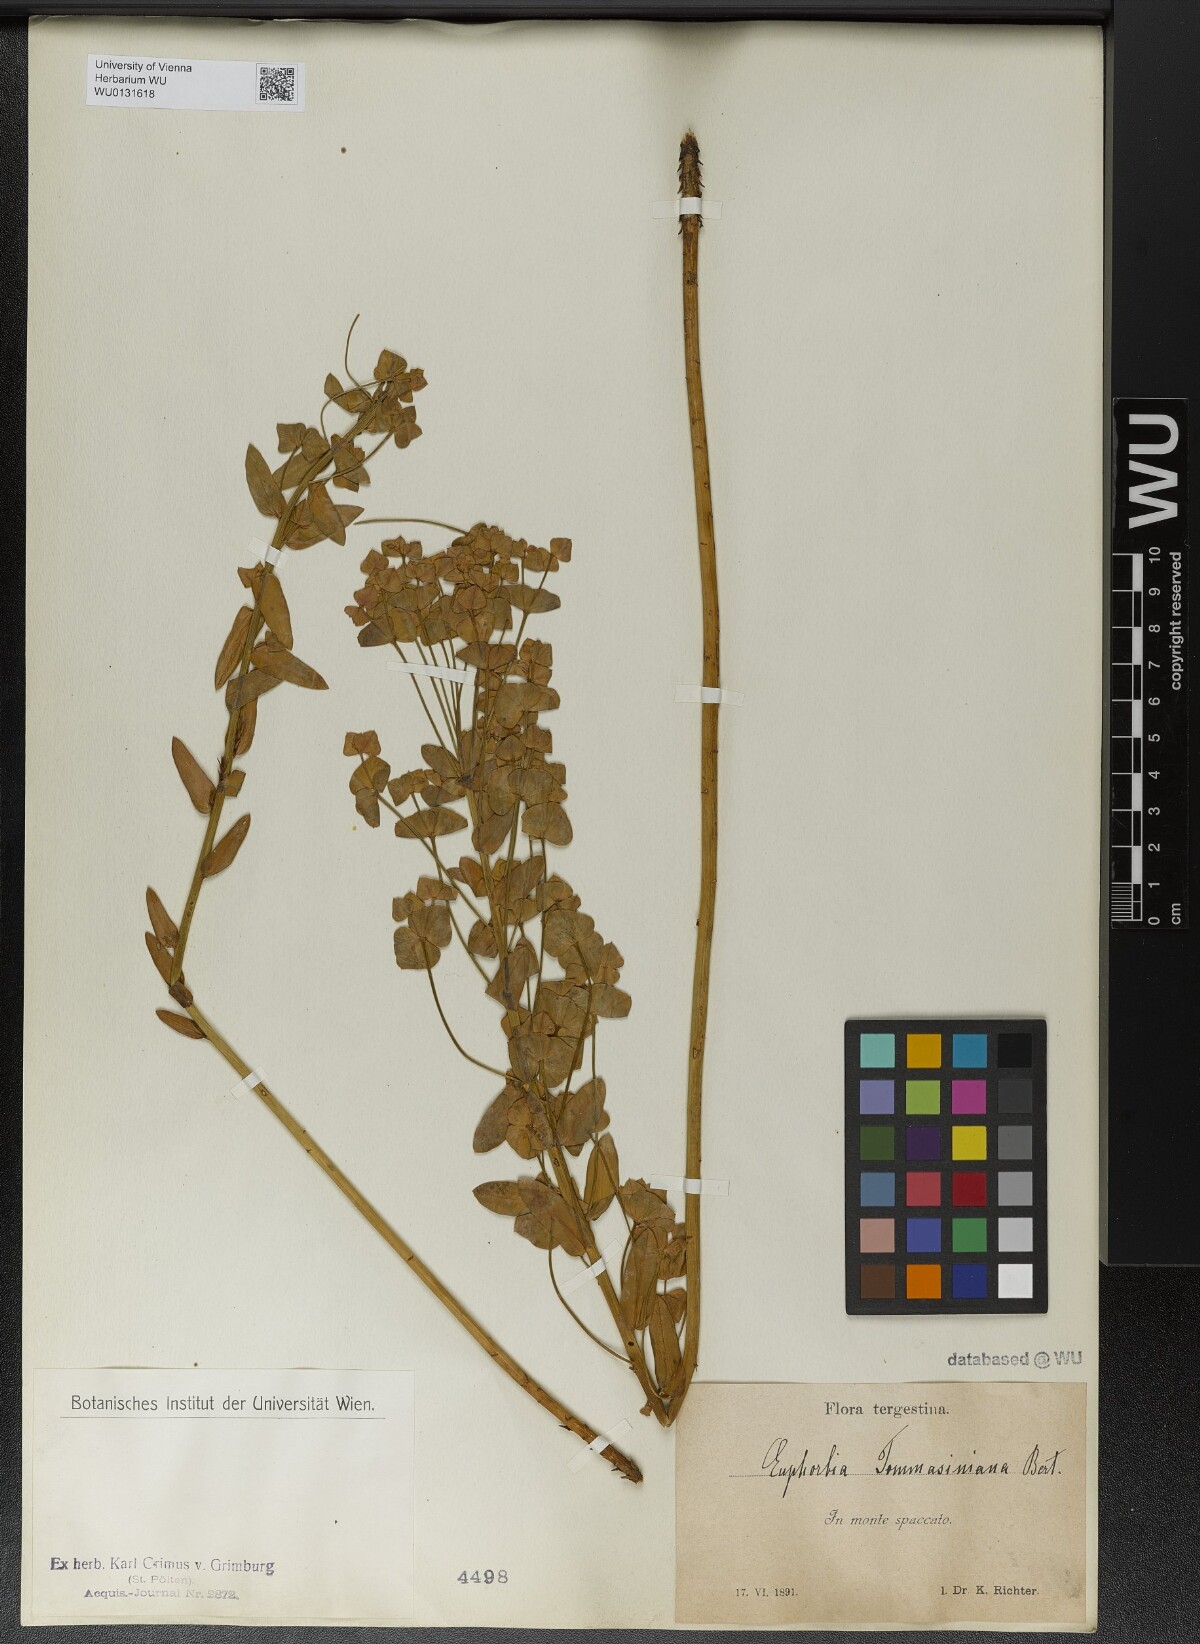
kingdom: Plantae
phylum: Tracheophyta
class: Magnoliopsida
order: Malpighiales
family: Euphorbiaceae
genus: Euphorbia
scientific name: Euphorbia tommasiniana
